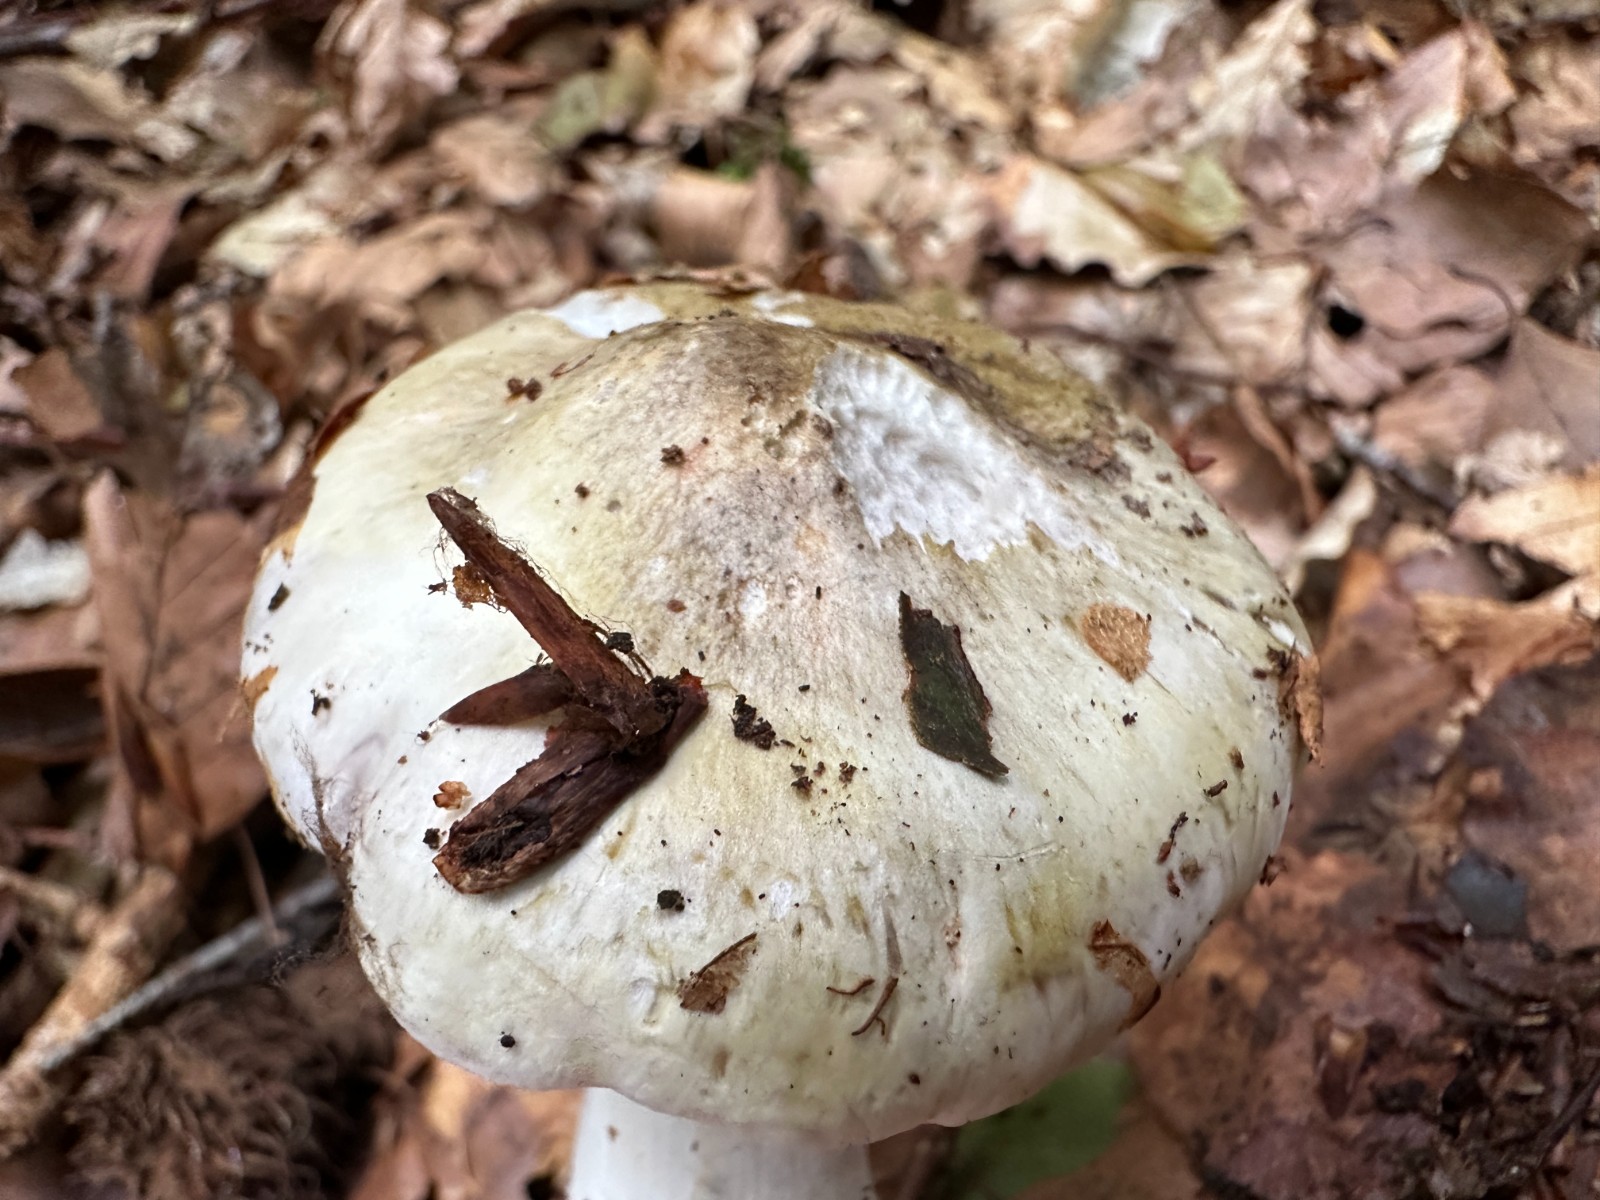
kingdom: Fungi
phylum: Basidiomycota
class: Agaricomycetes
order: Agaricales
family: Tricholomataceae
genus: Tricholoma
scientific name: Tricholoma
